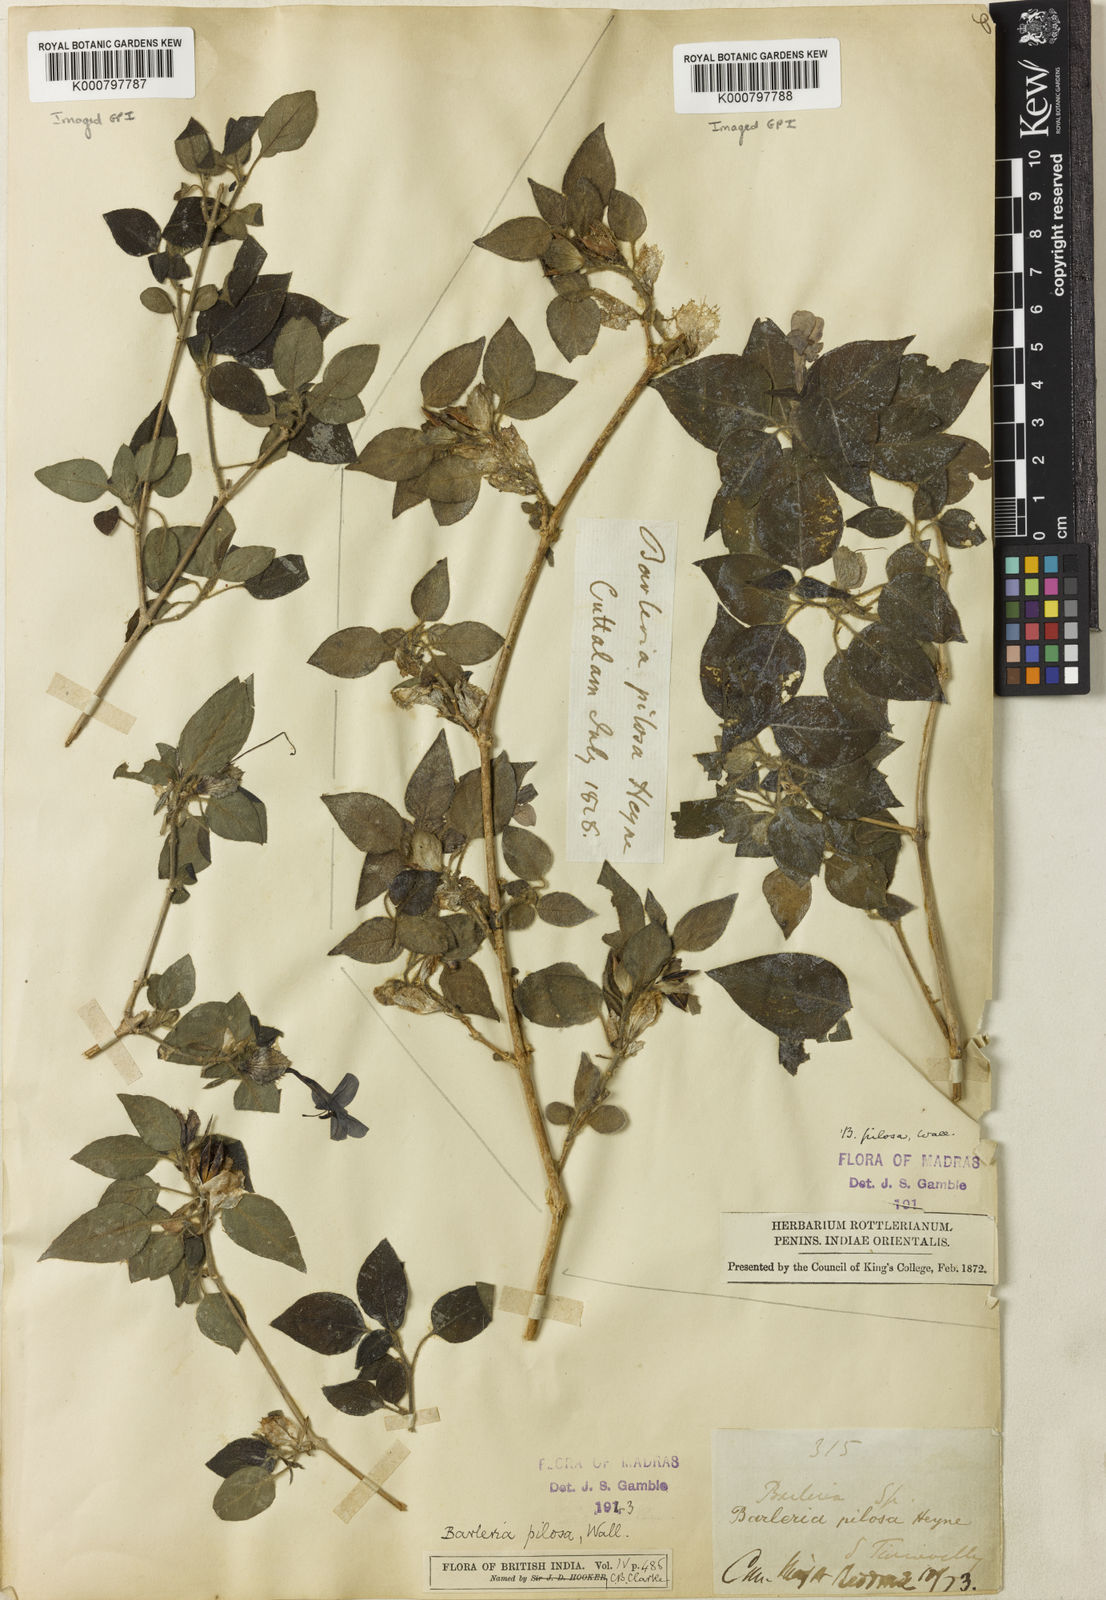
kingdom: Plantae
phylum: Tracheophyta
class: Magnoliopsida
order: Lamiales
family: Acanthaceae
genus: Barleria
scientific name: Barleria pilosa
